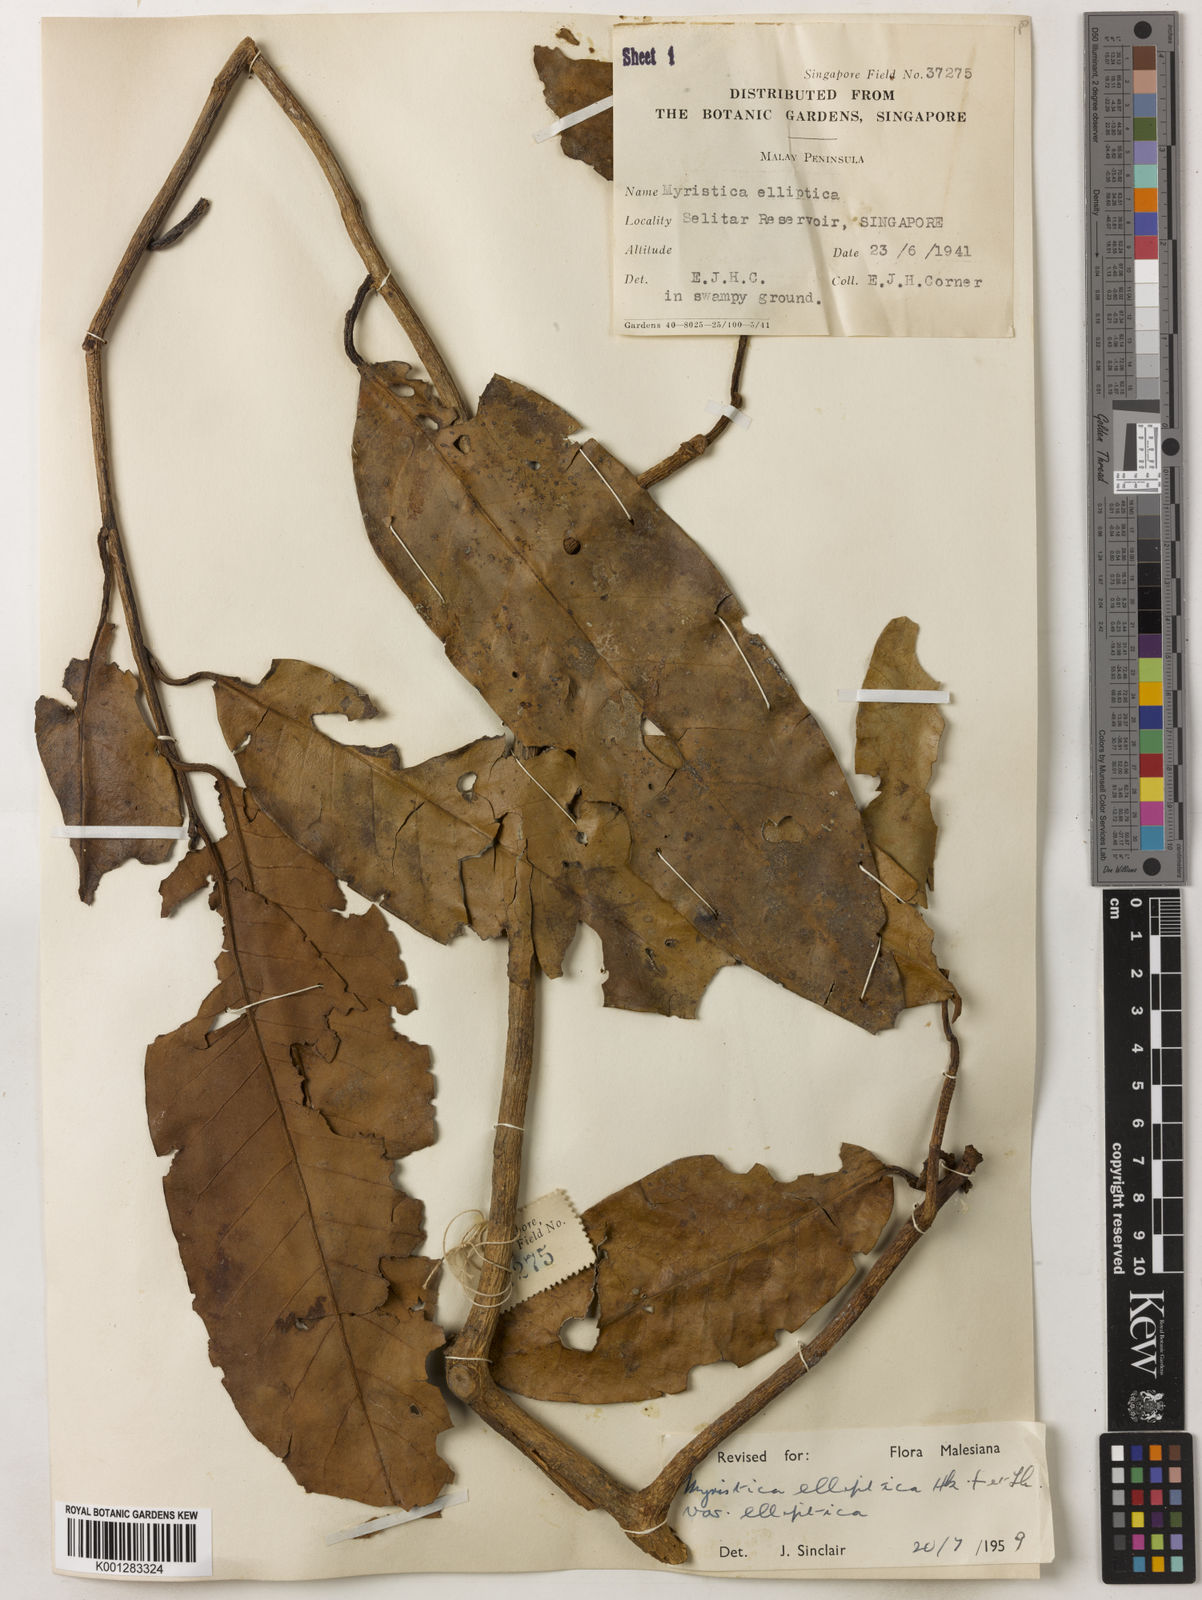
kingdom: Plantae
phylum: Tracheophyta
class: Magnoliopsida
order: Magnoliales
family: Myristicaceae
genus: Myristica
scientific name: Myristica elliptica
